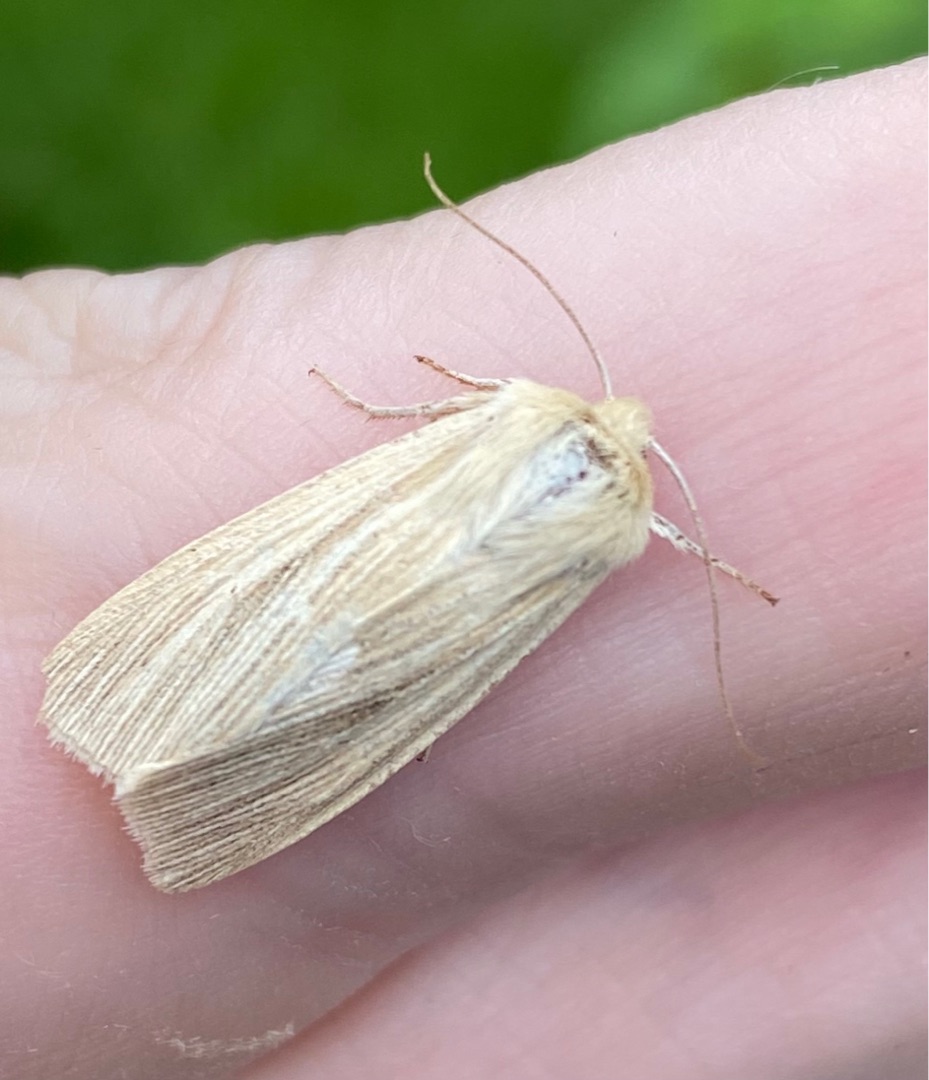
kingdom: Animalia
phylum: Arthropoda
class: Insecta
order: Lepidoptera
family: Noctuidae
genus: Mythimna
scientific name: Mythimna pallens
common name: Halmugle
